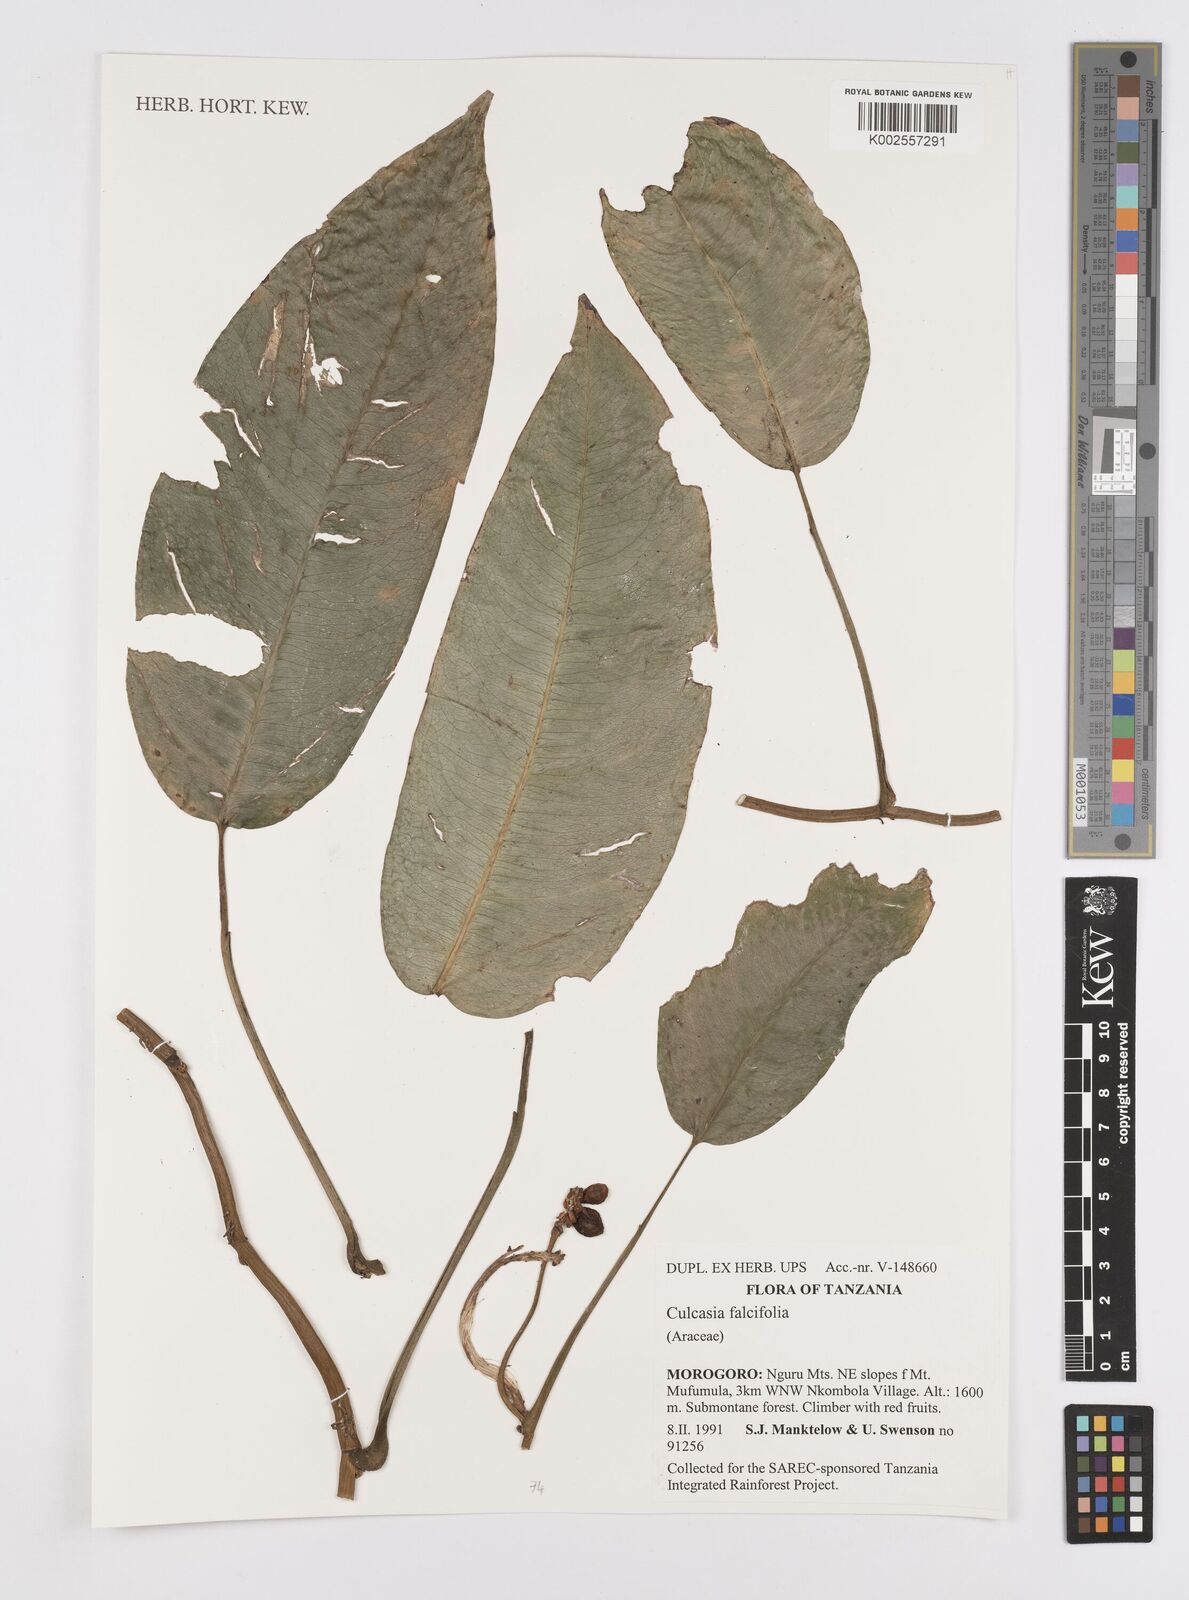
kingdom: Plantae
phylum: Tracheophyta
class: Liliopsida
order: Alismatales
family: Araceae
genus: Culcasia
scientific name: Culcasia falcifolia
